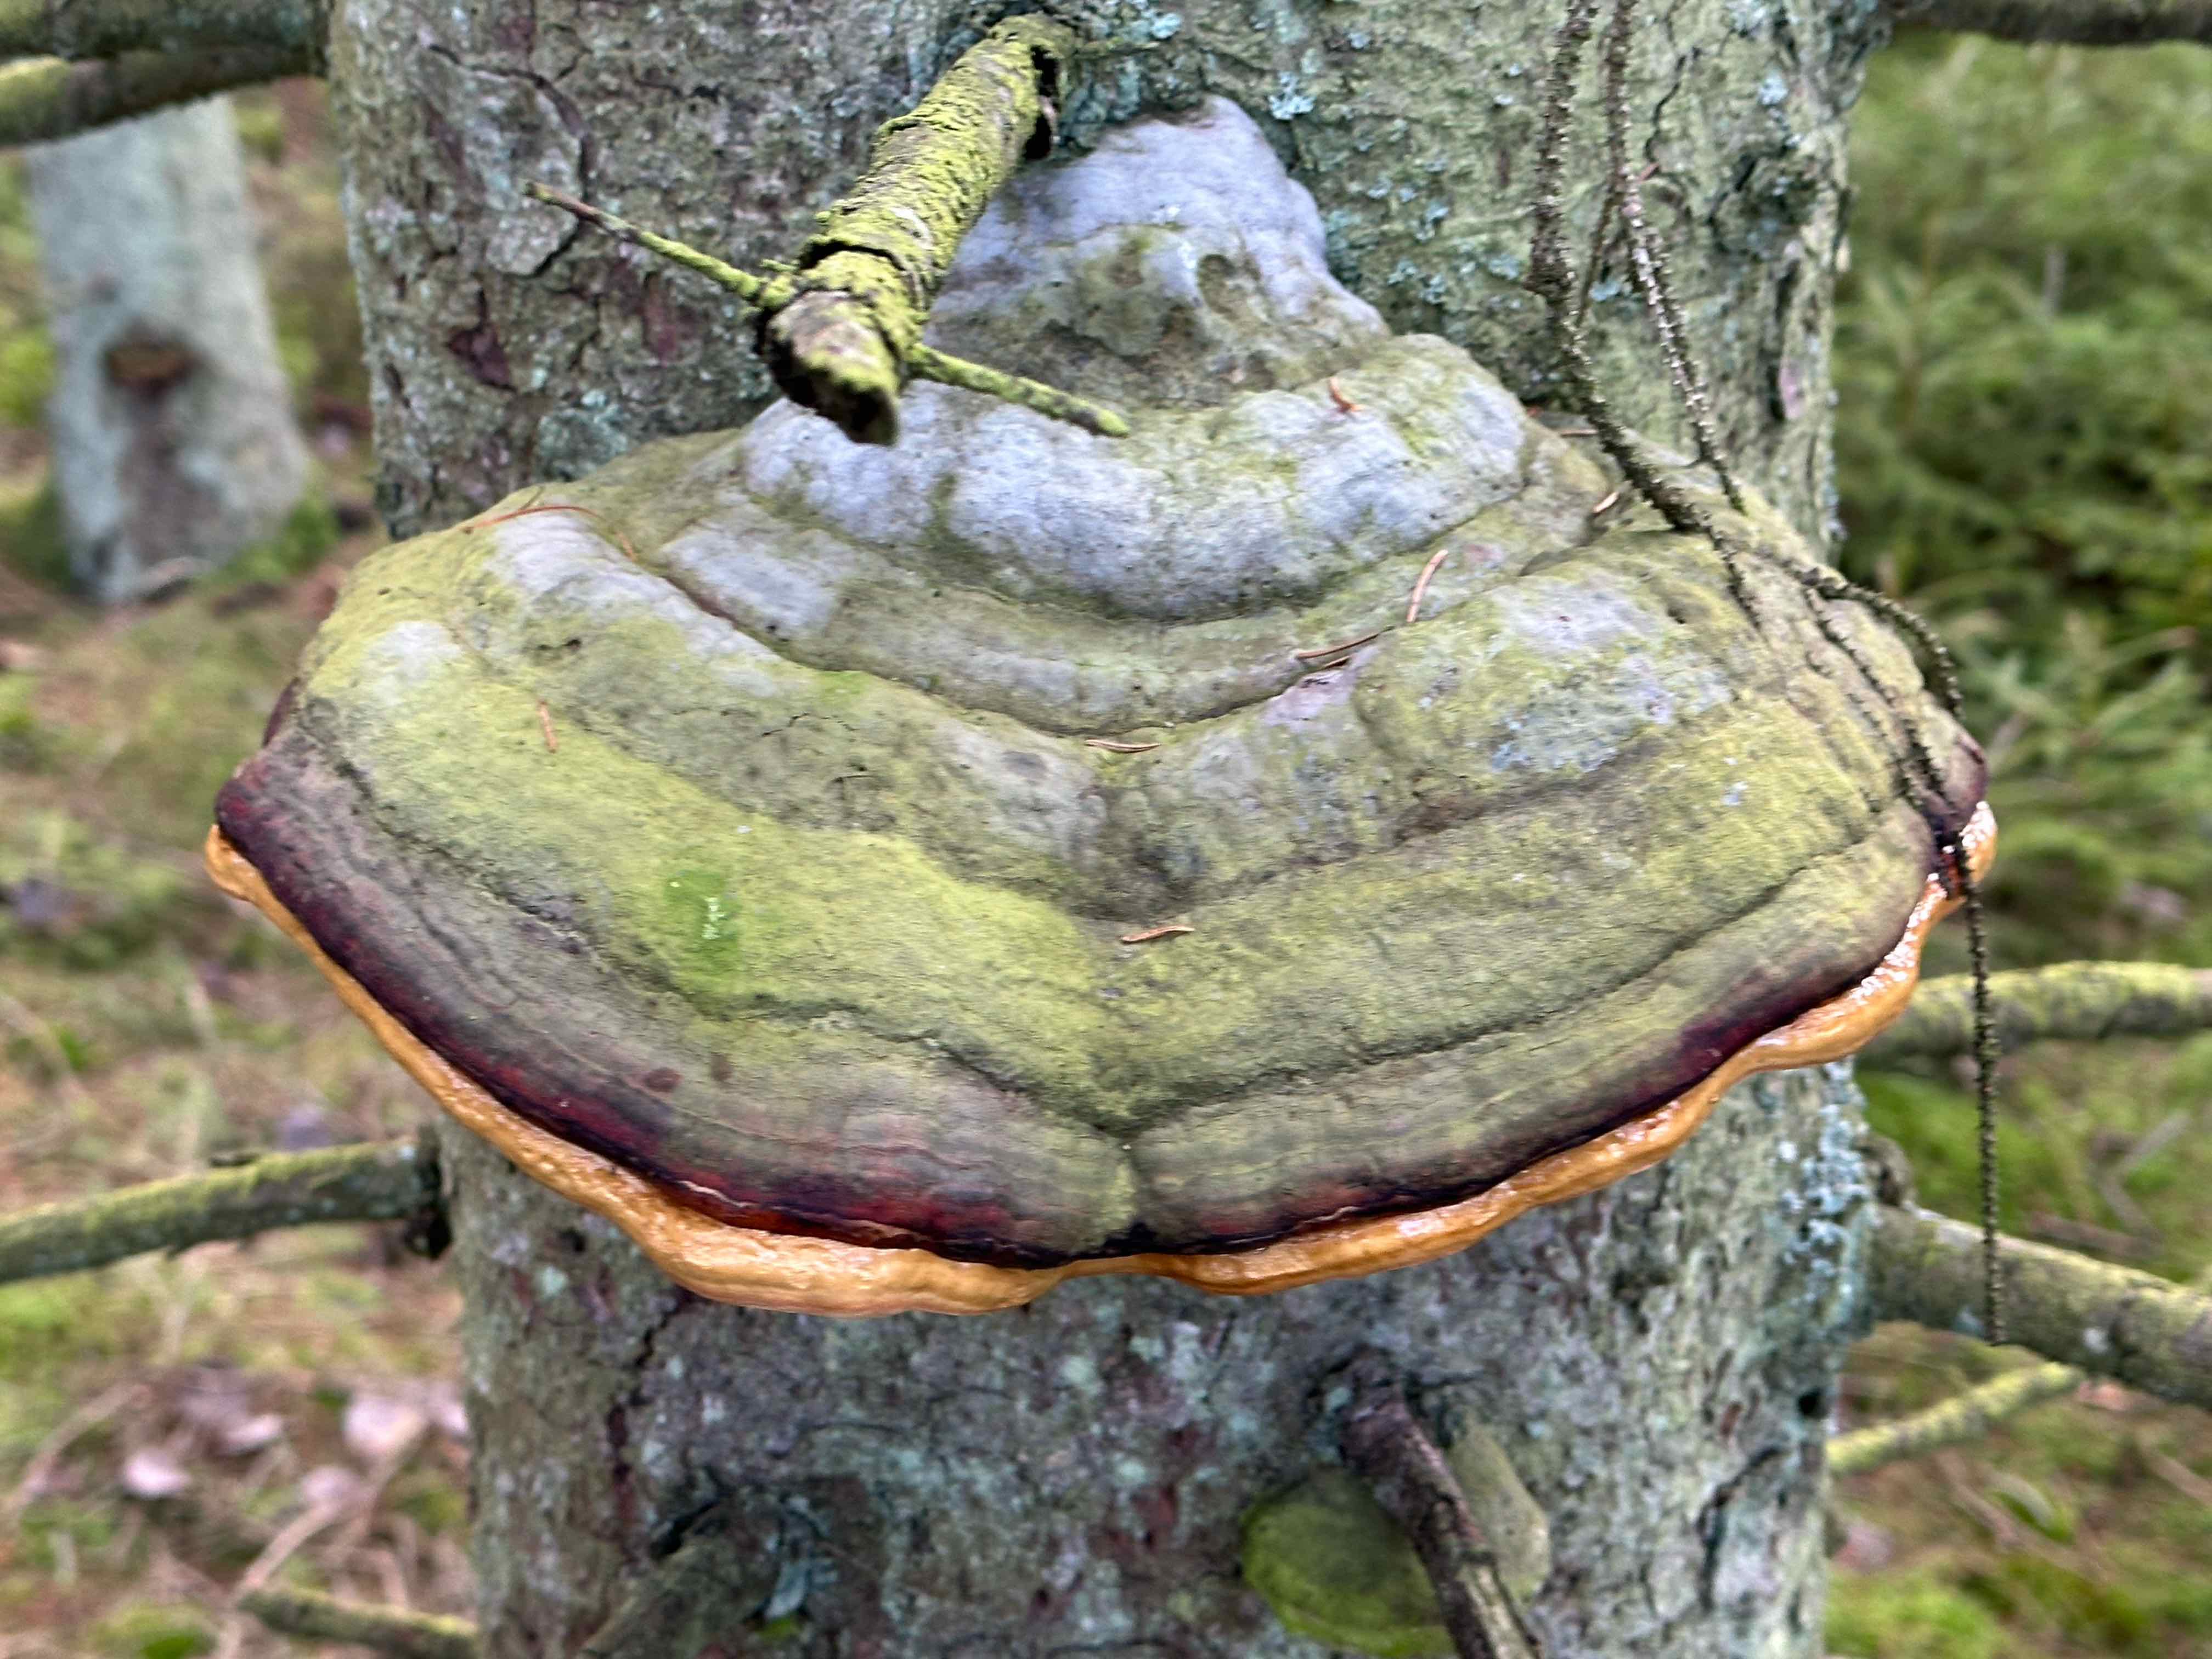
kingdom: Fungi
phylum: Basidiomycota
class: Agaricomycetes
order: Polyporales
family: Fomitopsidaceae
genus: Fomitopsis
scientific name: Fomitopsis pinicola
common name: randbæltet hovporesvamp
